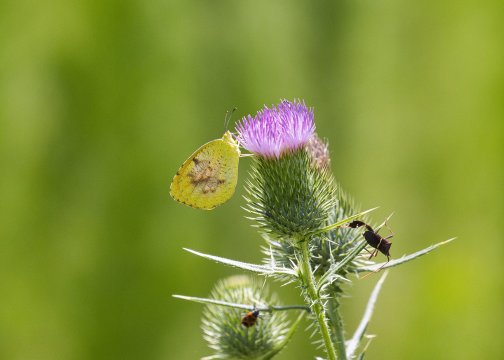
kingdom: Animalia
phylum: Arthropoda
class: Insecta
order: Lepidoptera
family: Pieridae
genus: Abaeis
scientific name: Abaeis nicippe
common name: Sleepy Orange
